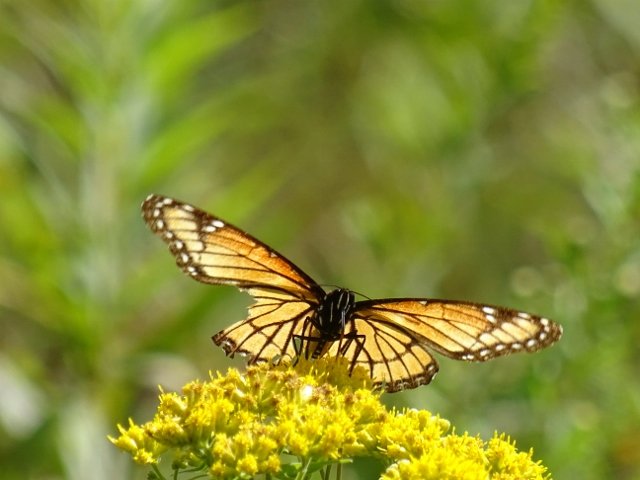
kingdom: Animalia
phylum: Arthropoda
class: Insecta
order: Lepidoptera
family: Nymphalidae
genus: Limenitis
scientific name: Limenitis archippus
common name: Viceroy
